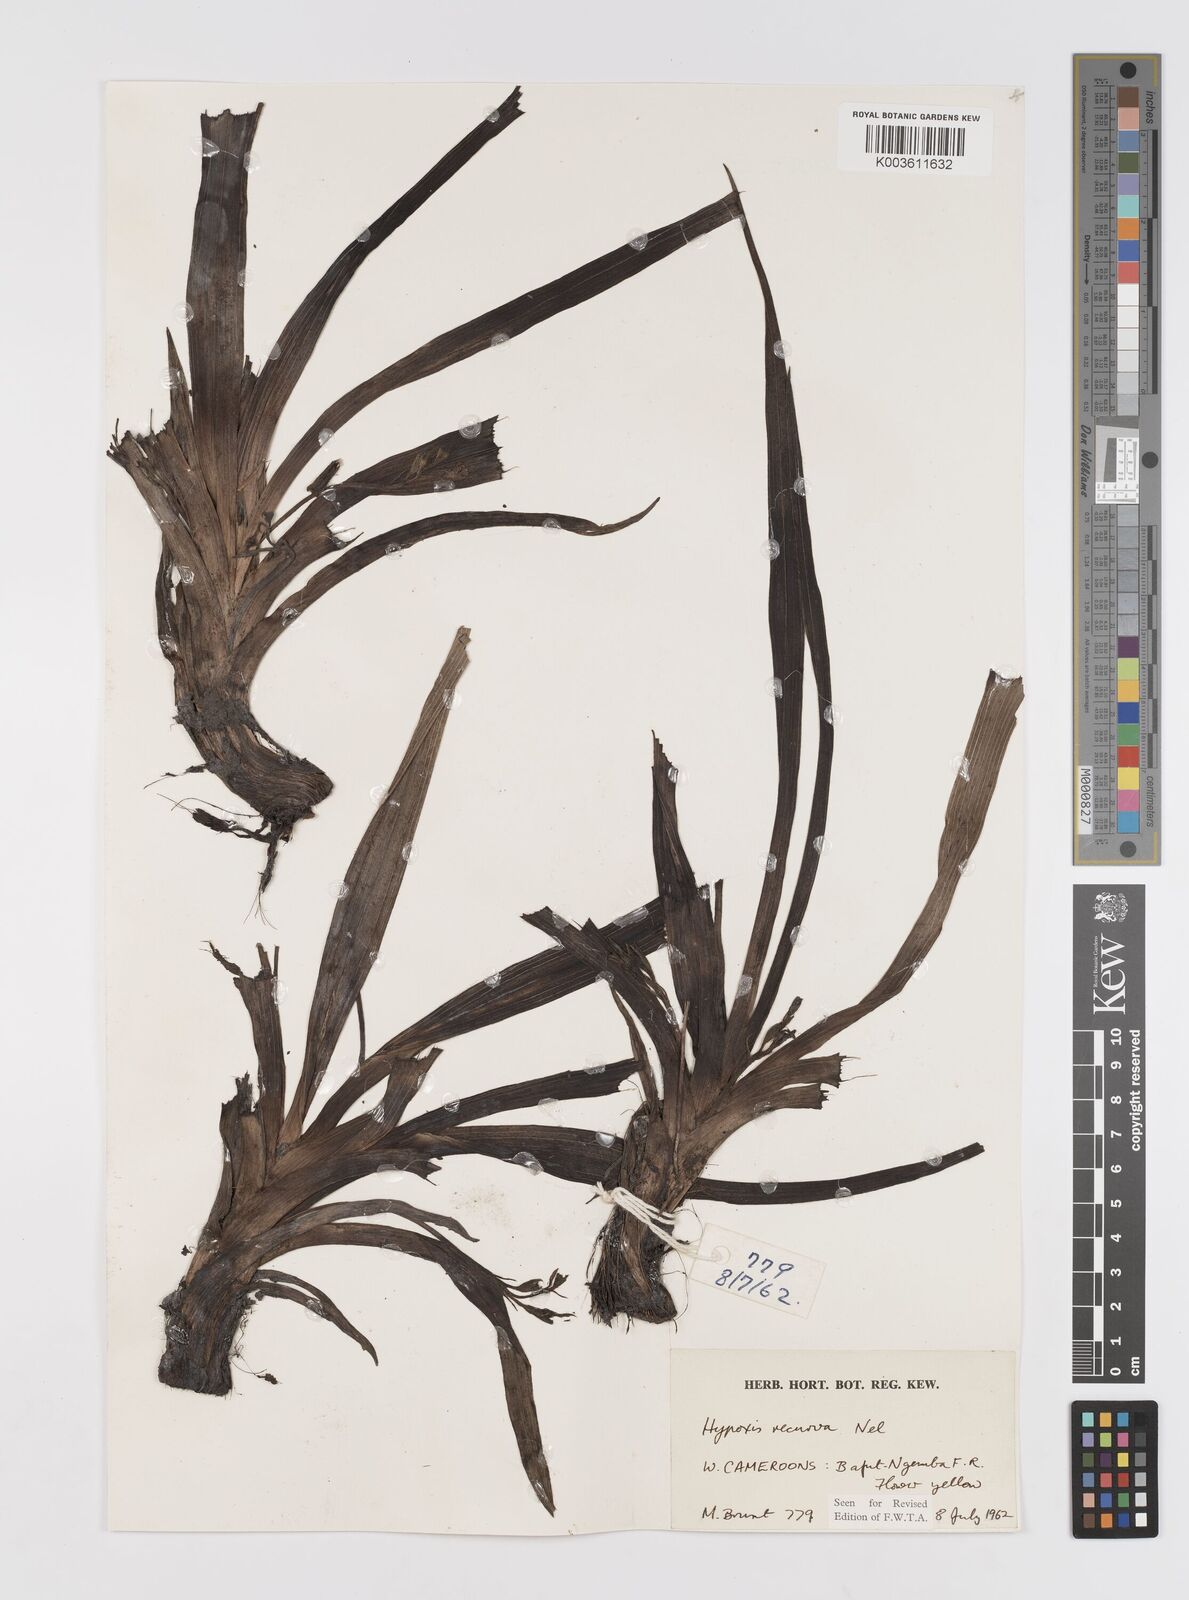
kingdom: Plantae
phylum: Tracheophyta
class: Liliopsida
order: Asparagales
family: Hypoxidaceae
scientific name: Hypoxidaceae
